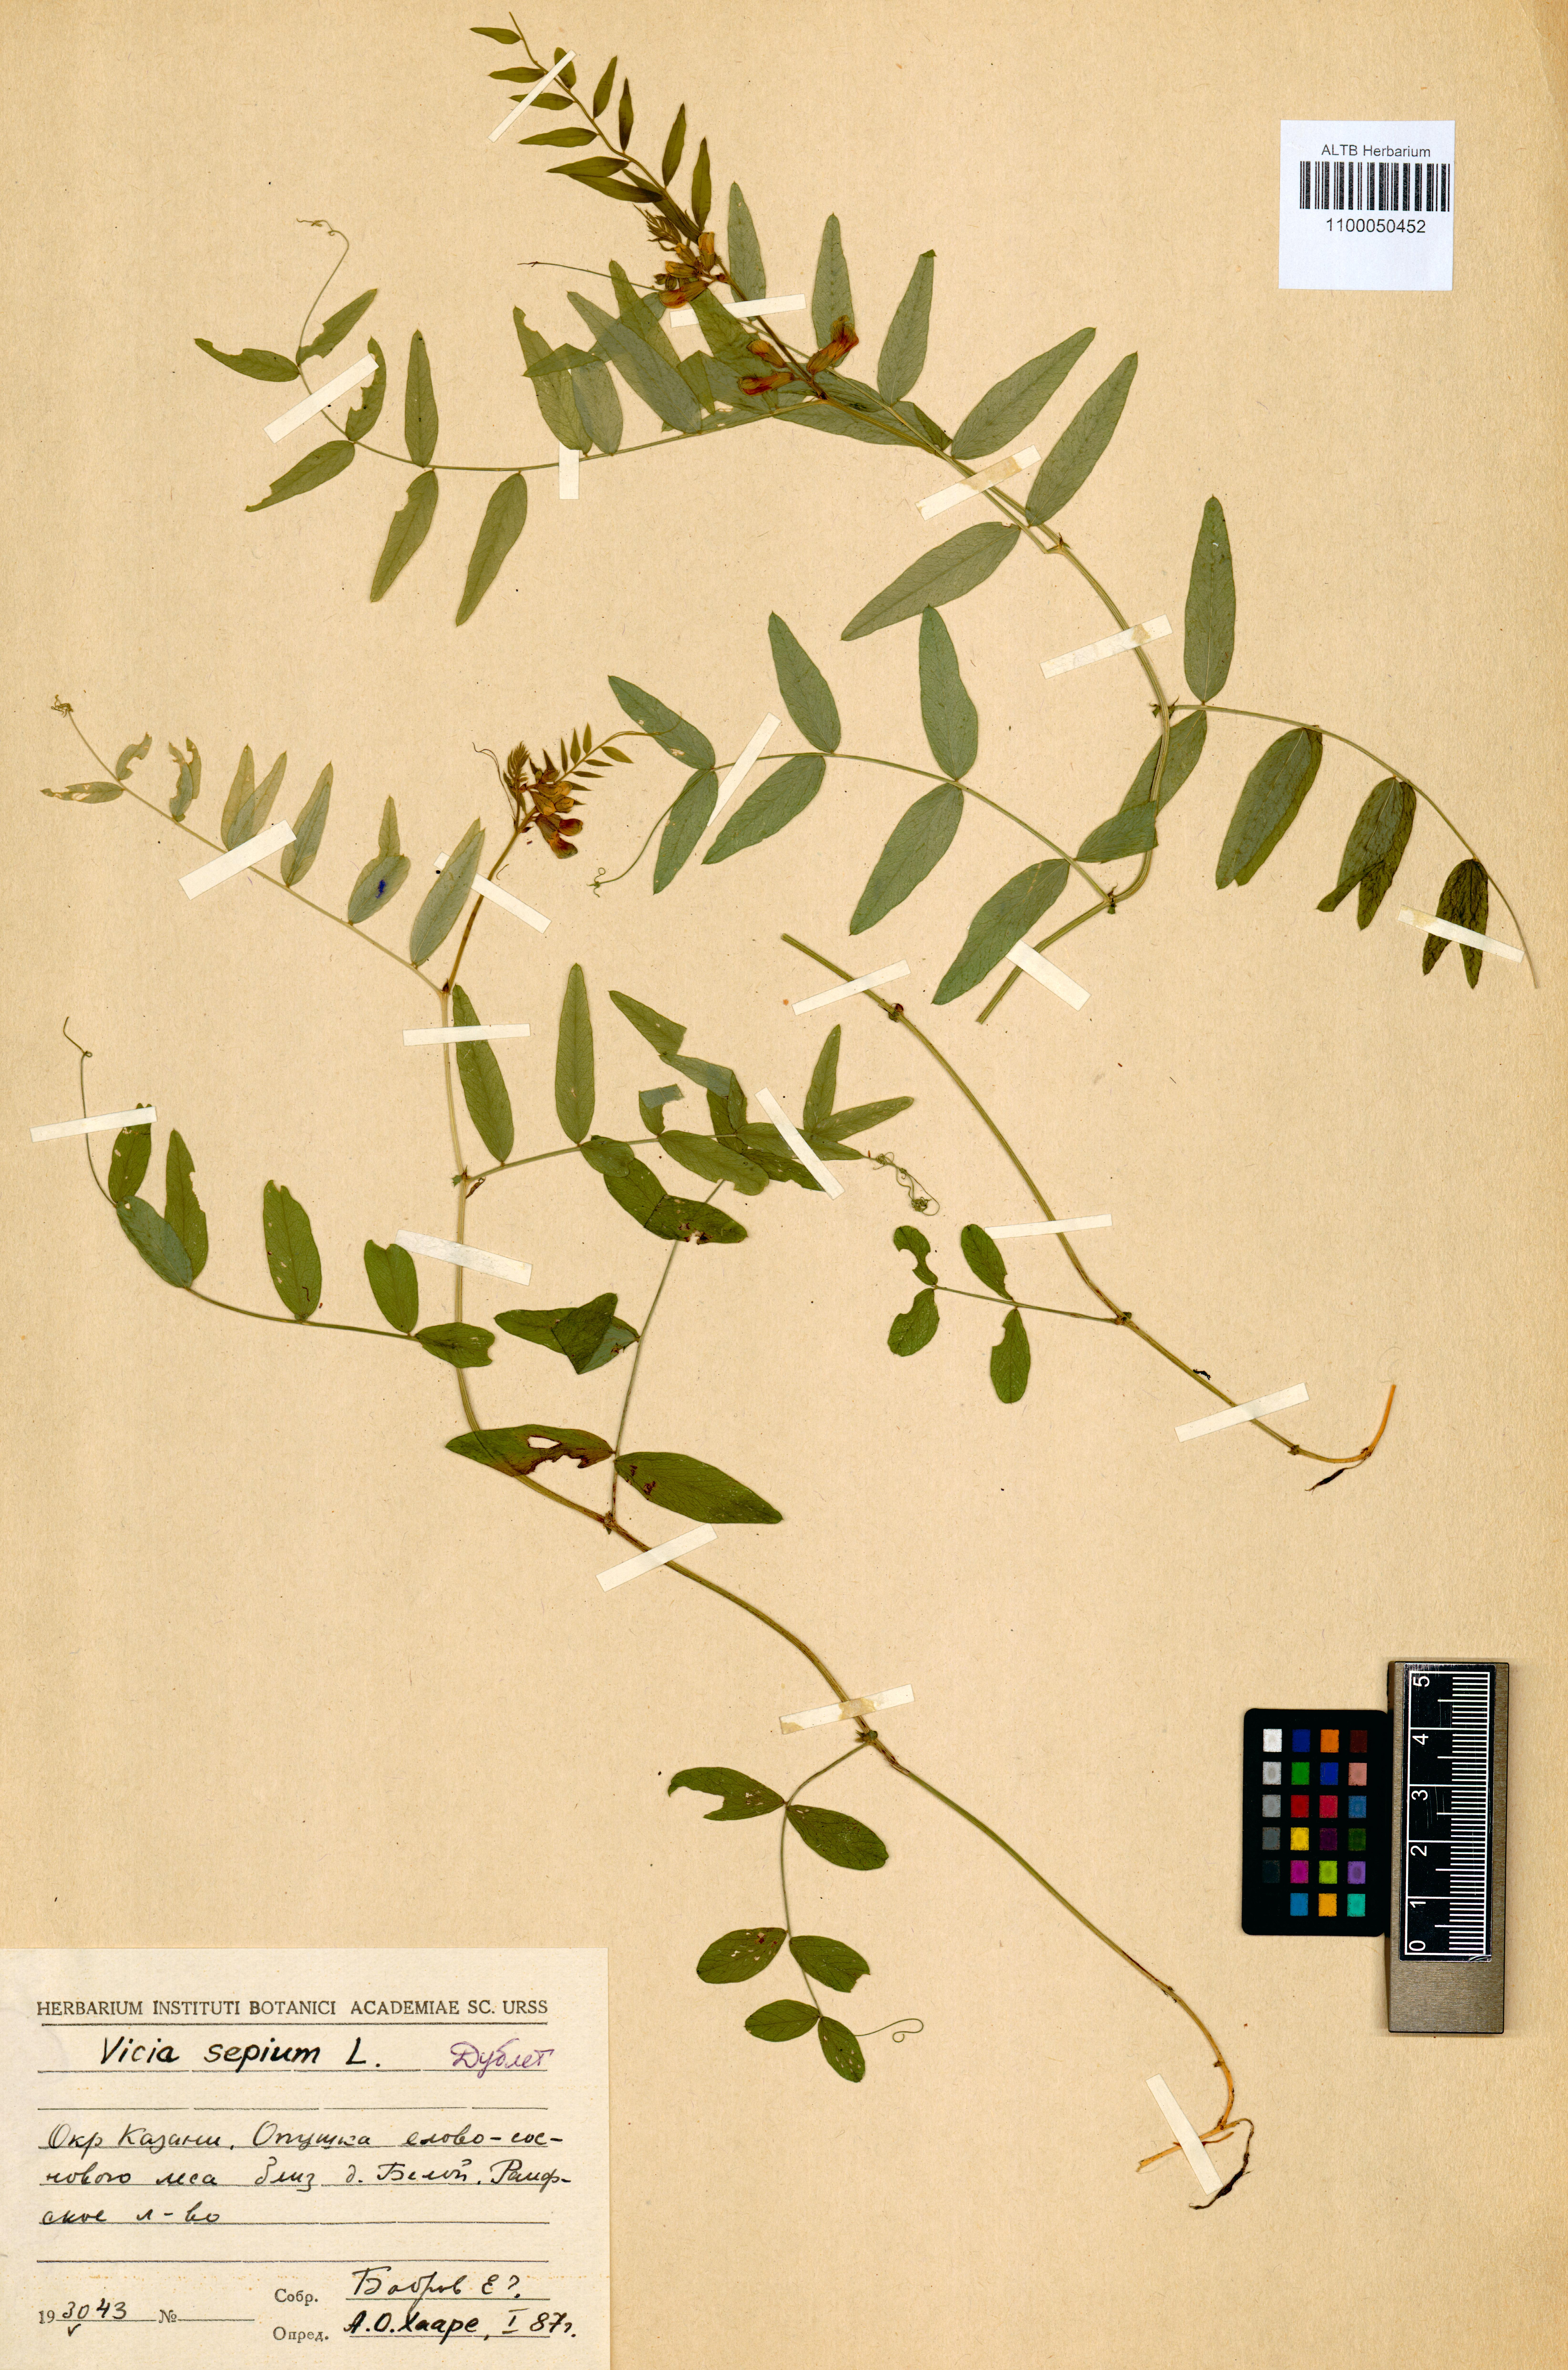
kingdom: Plantae
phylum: Tracheophyta
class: Magnoliopsida
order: Fabales
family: Fabaceae
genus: Vicia
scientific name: Vicia sepium
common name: Bush vetch
